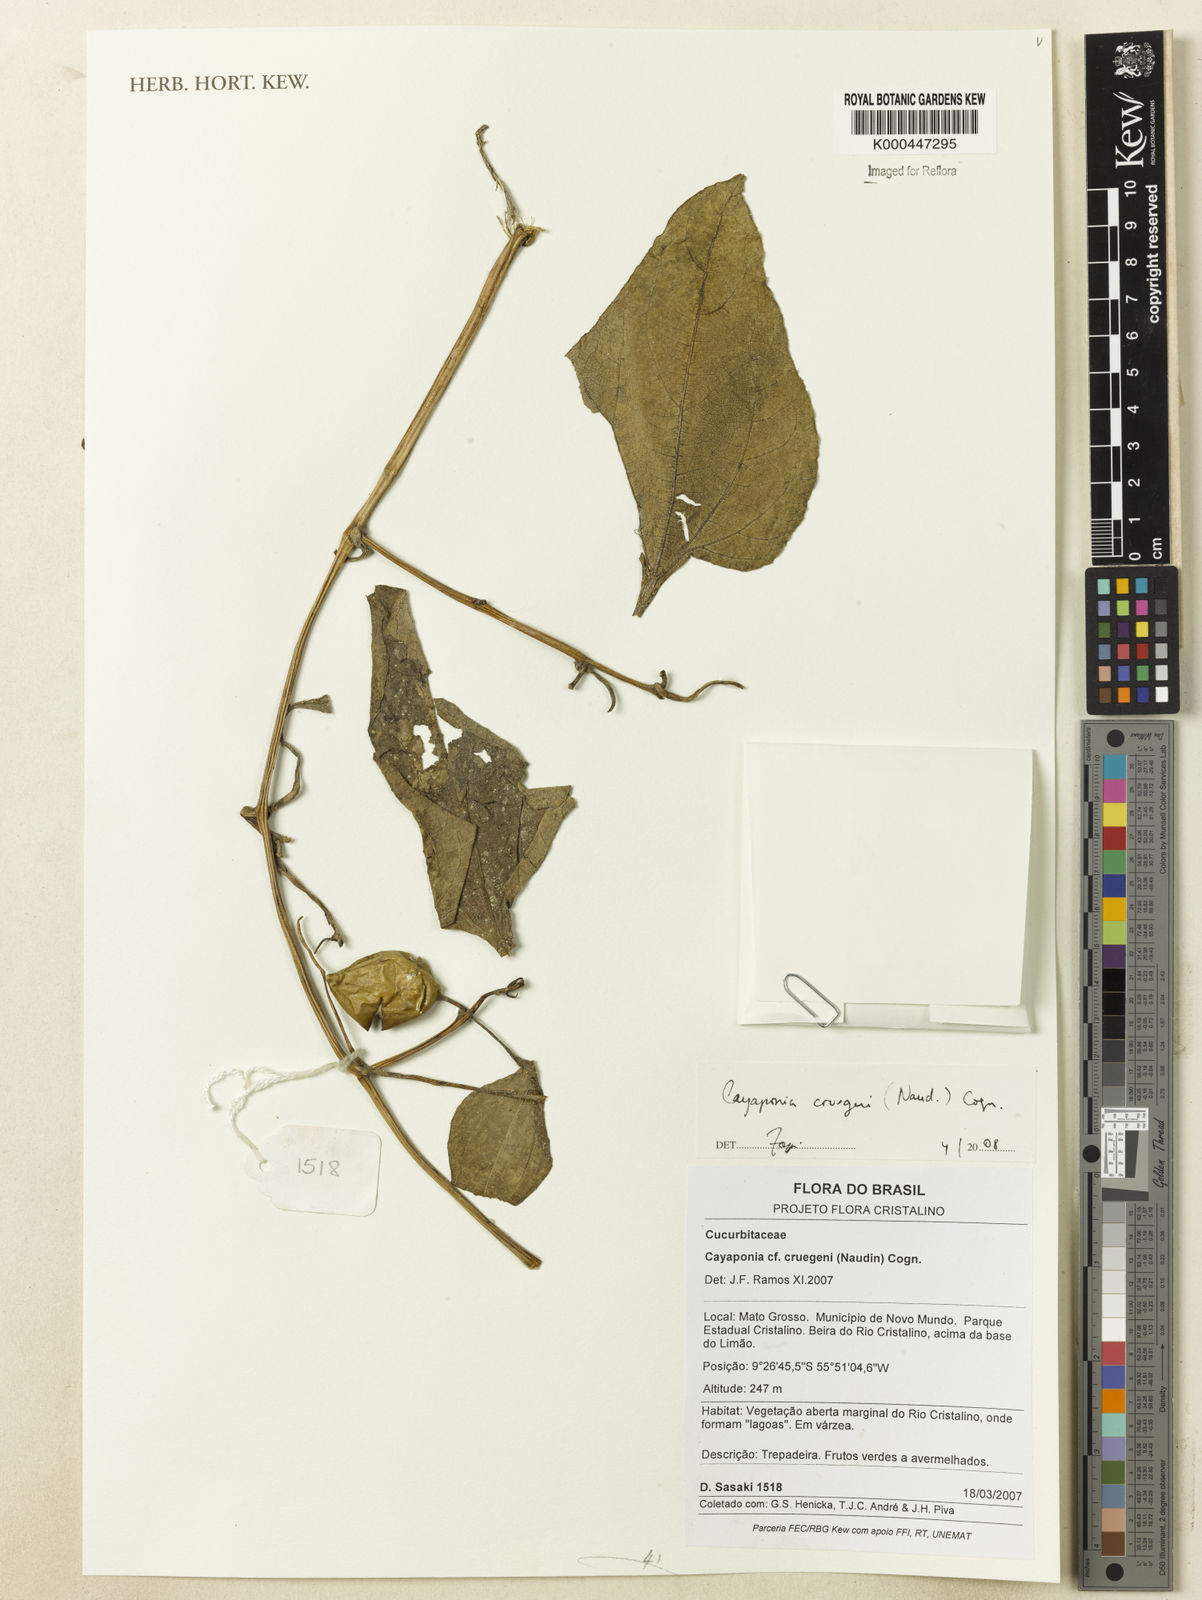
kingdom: Plantae
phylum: Tracheophyta
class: Magnoliopsida
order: Cucurbitales
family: Cucurbitaceae
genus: Cayaponia
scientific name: Cayaponia cruegeri
